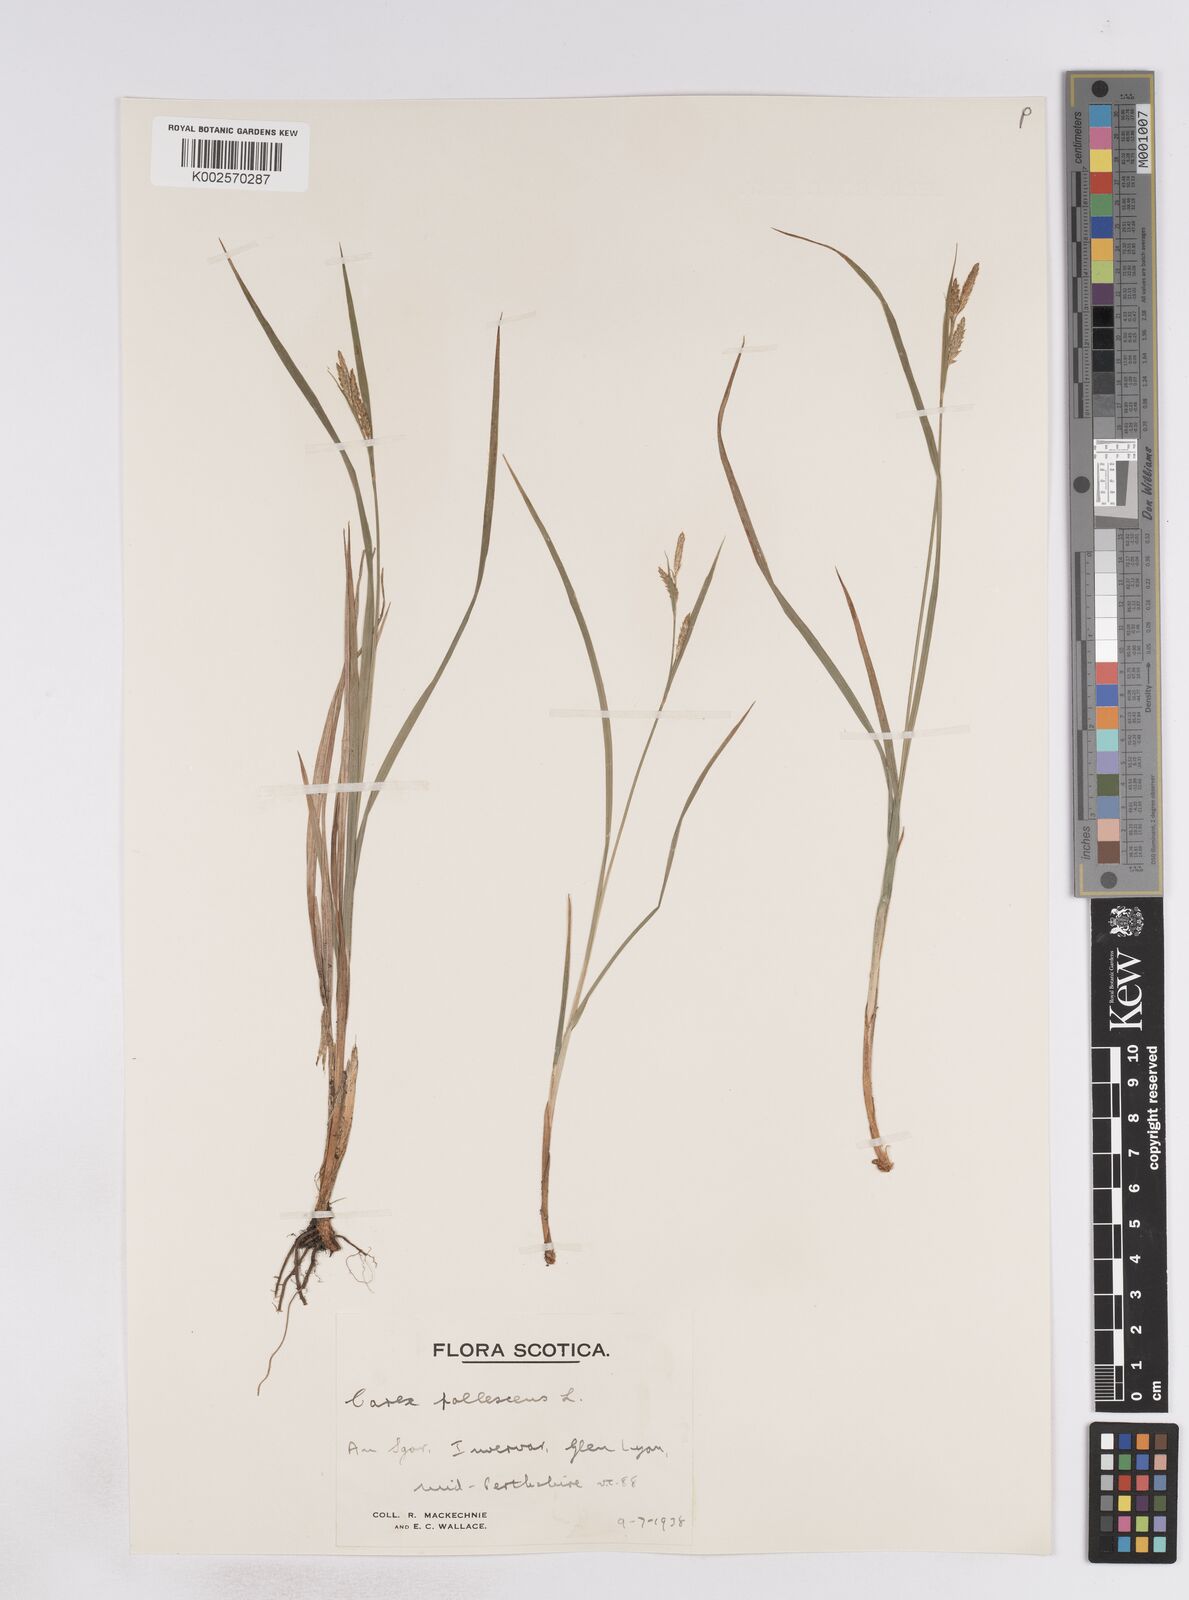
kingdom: Plantae
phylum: Tracheophyta
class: Liliopsida
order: Poales
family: Cyperaceae
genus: Carex
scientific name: Carex pallescens
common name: Pale sedge
